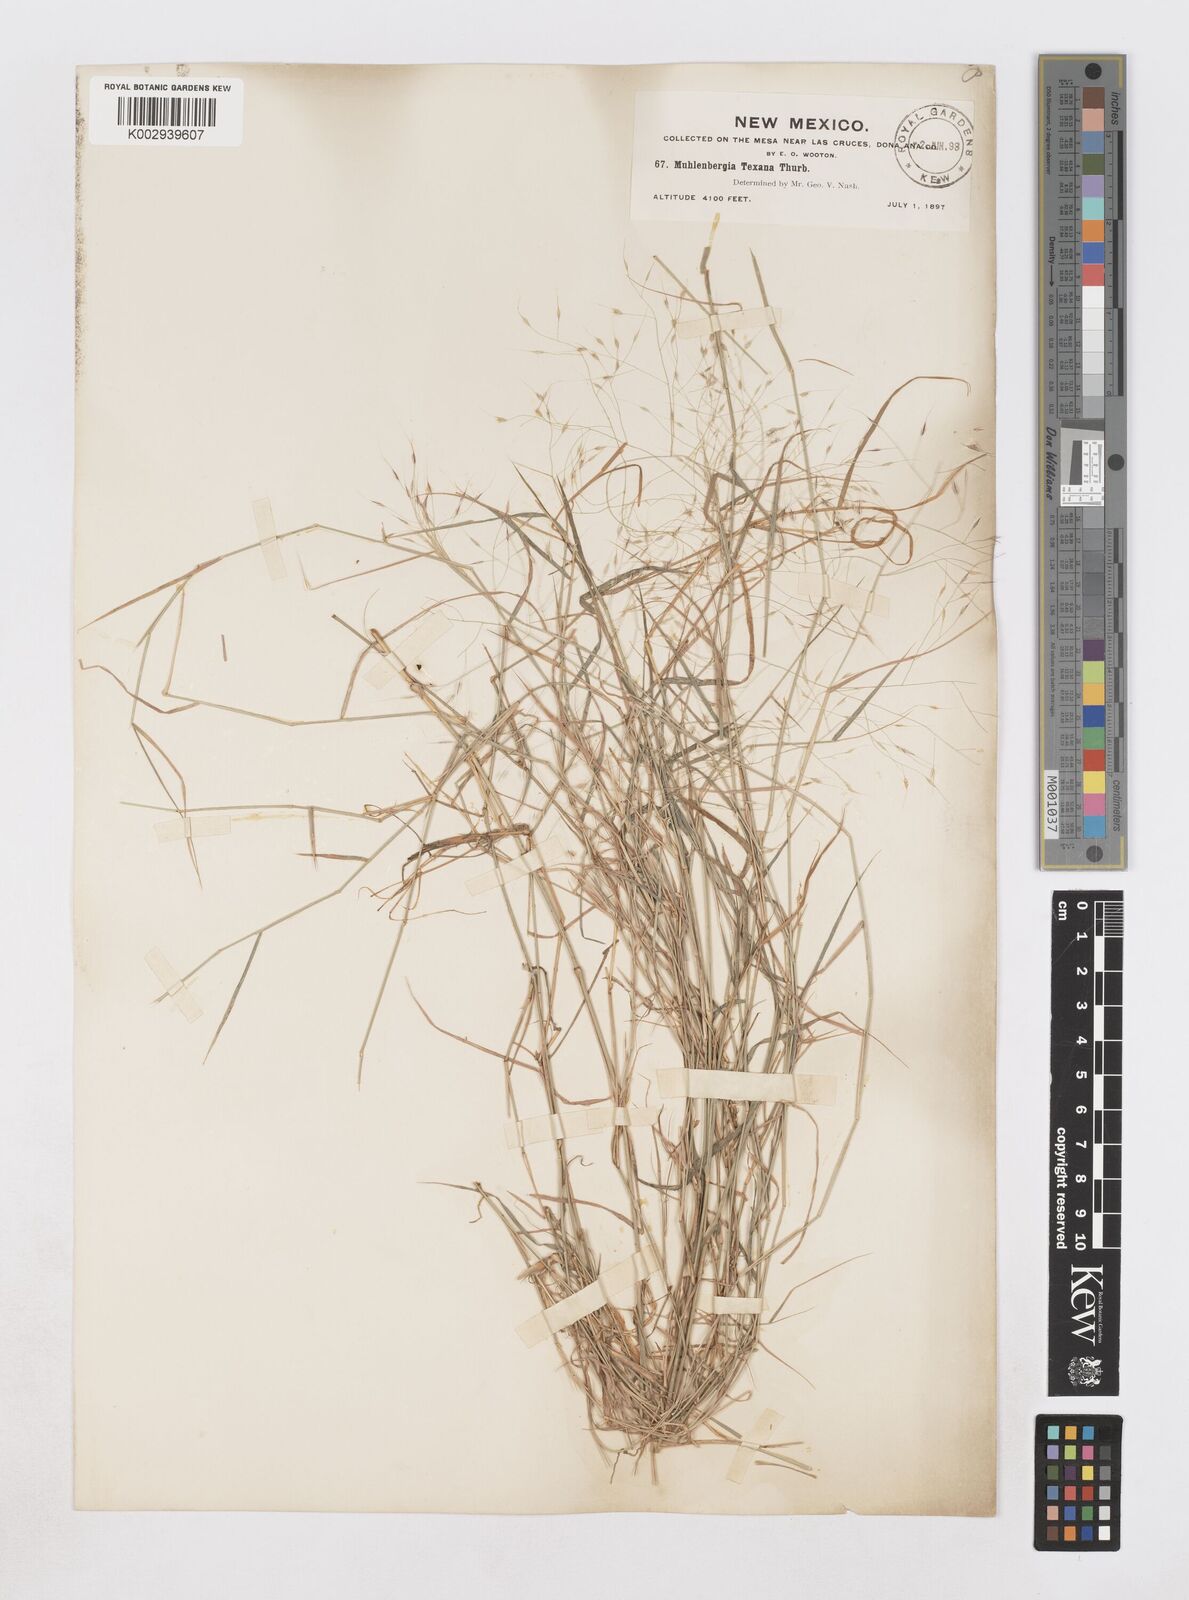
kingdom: Plantae
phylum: Tracheophyta
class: Liliopsida
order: Poales
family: Poaceae
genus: Muhlenbergia
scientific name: Muhlenbergia porteri
